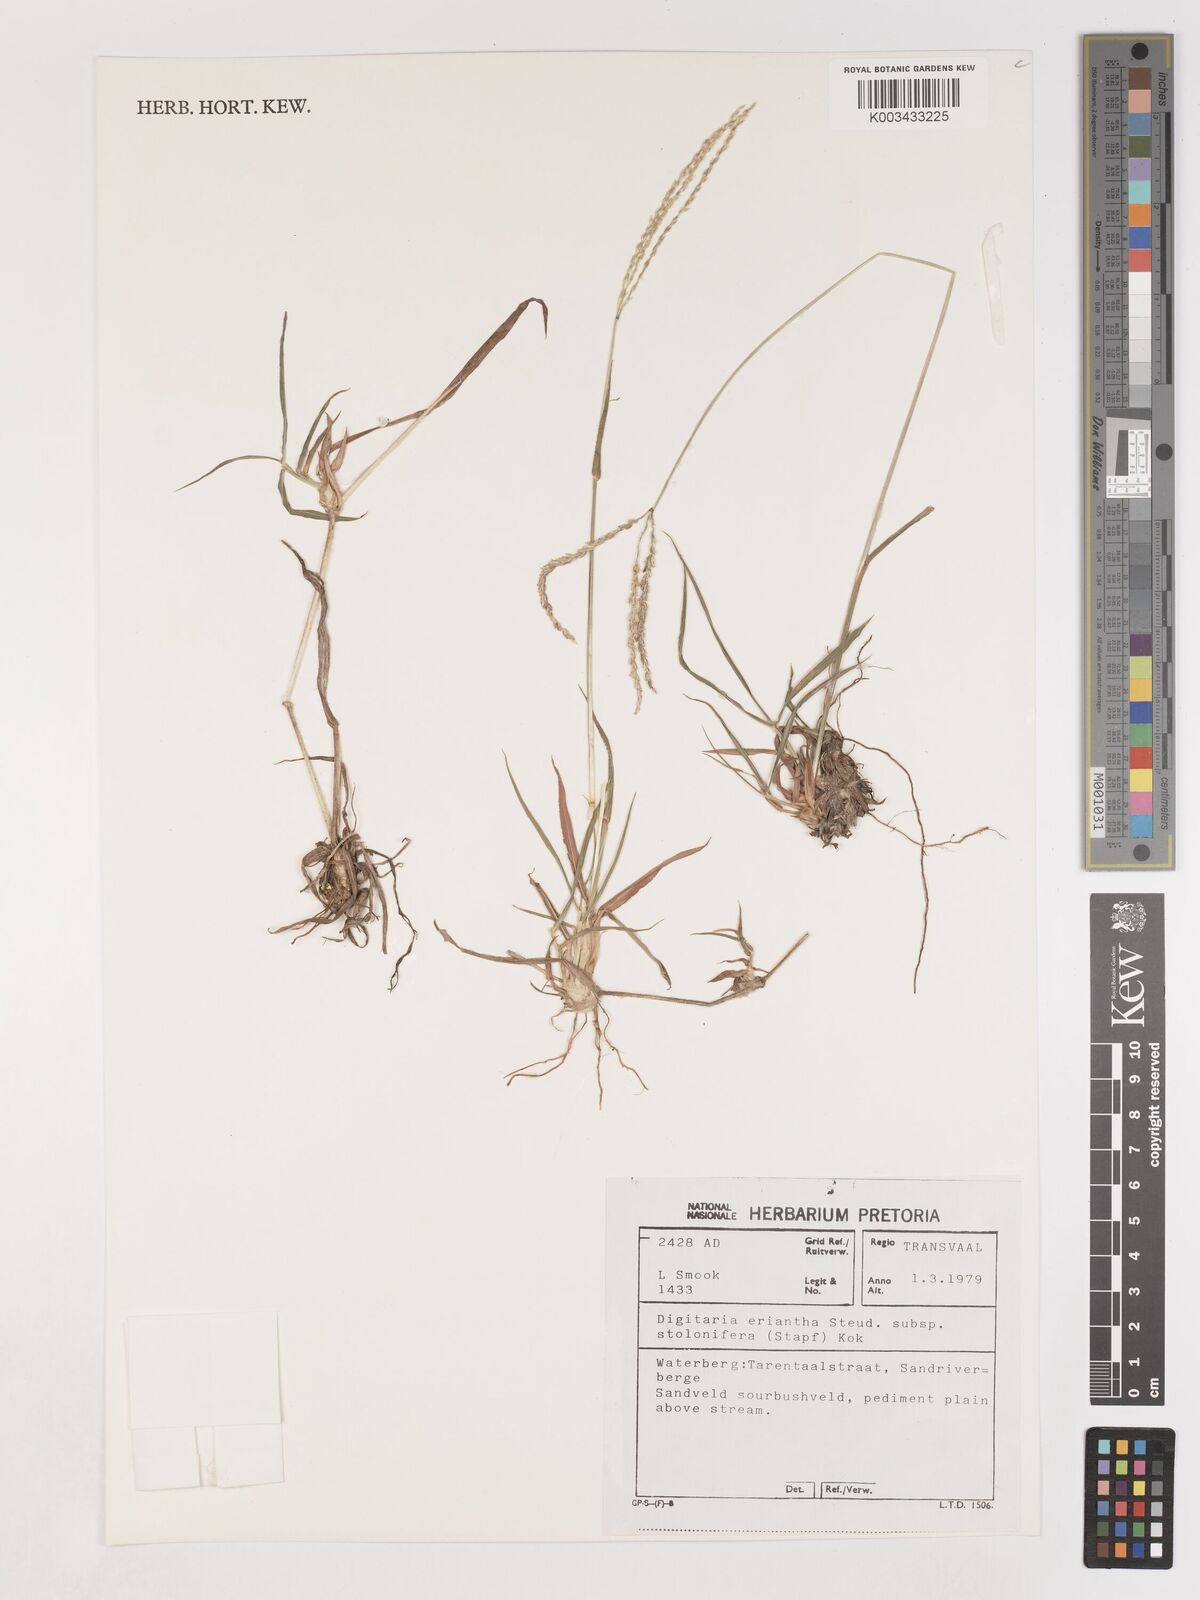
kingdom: Plantae
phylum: Tracheophyta
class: Liliopsida
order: Poales
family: Poaceae
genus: Digitaria
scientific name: Digitaria eriantha
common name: Digitgrass
